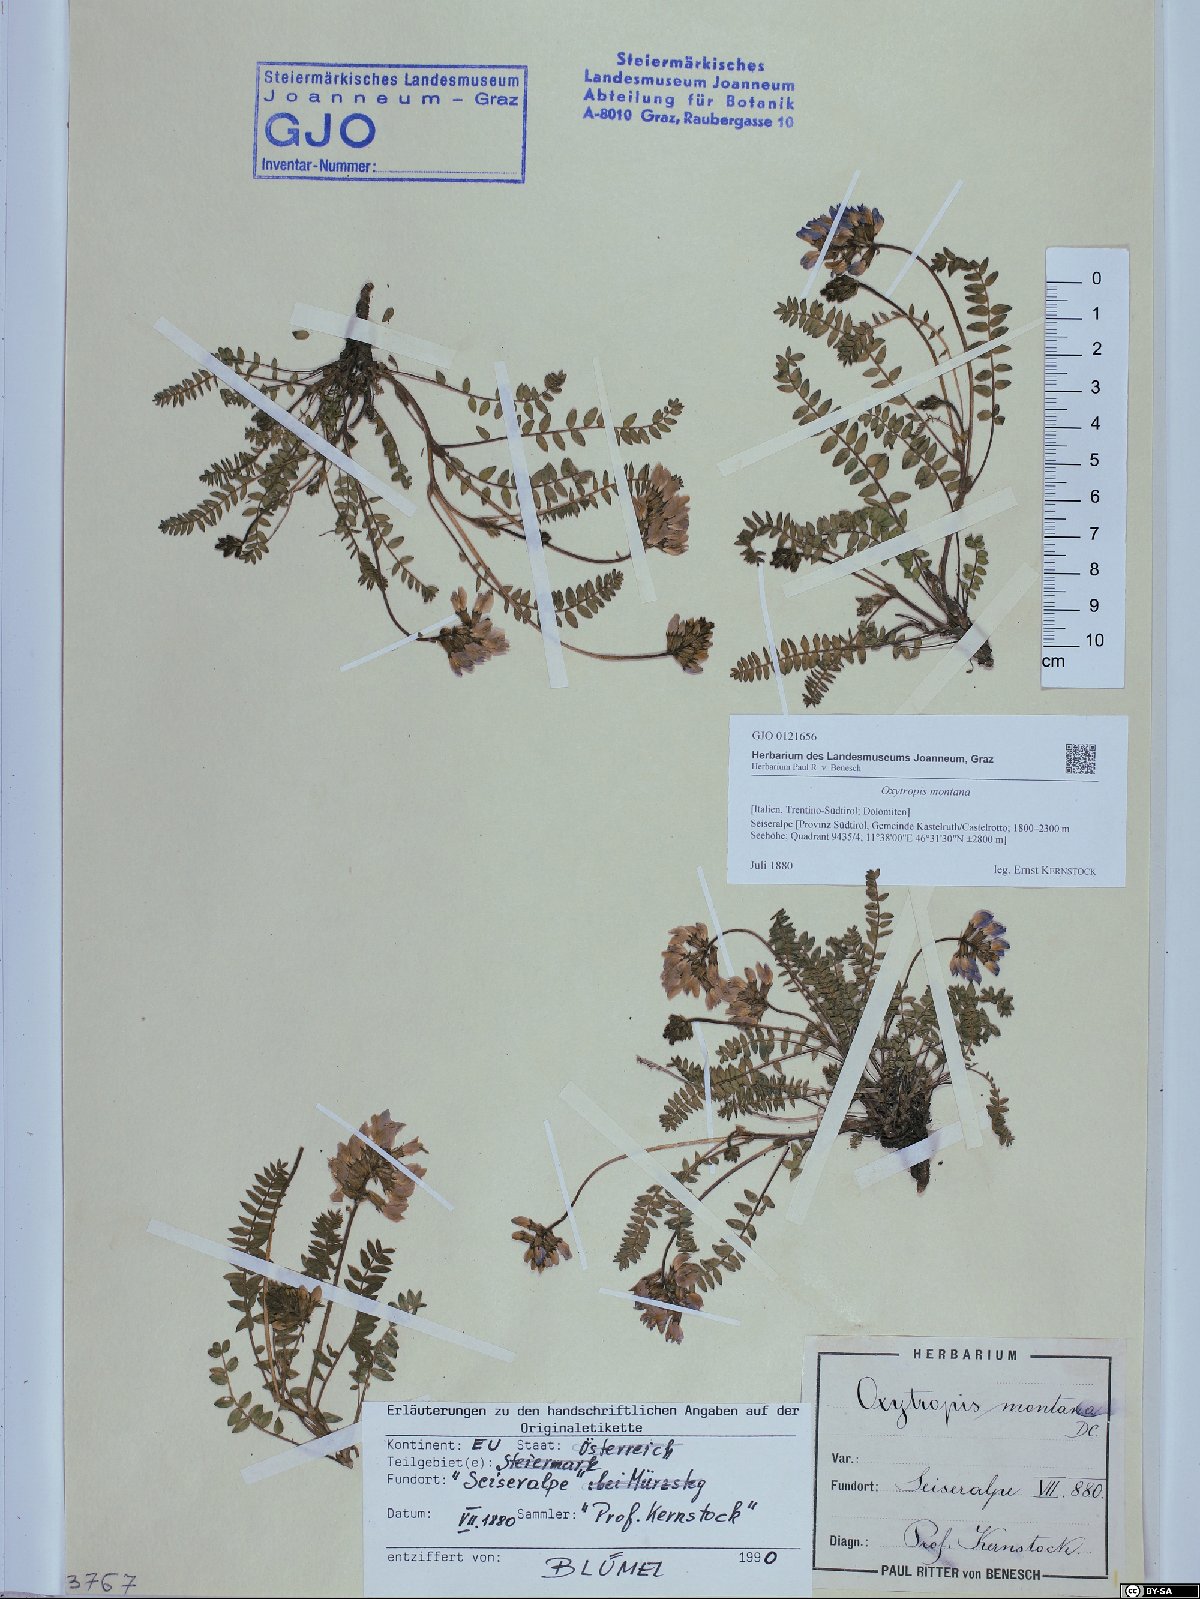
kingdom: Plantae
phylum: Tracheophyta
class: Magnoliopsida
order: Fabales
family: Fabaceae
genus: Oxytropis
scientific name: Oxytropis montana
